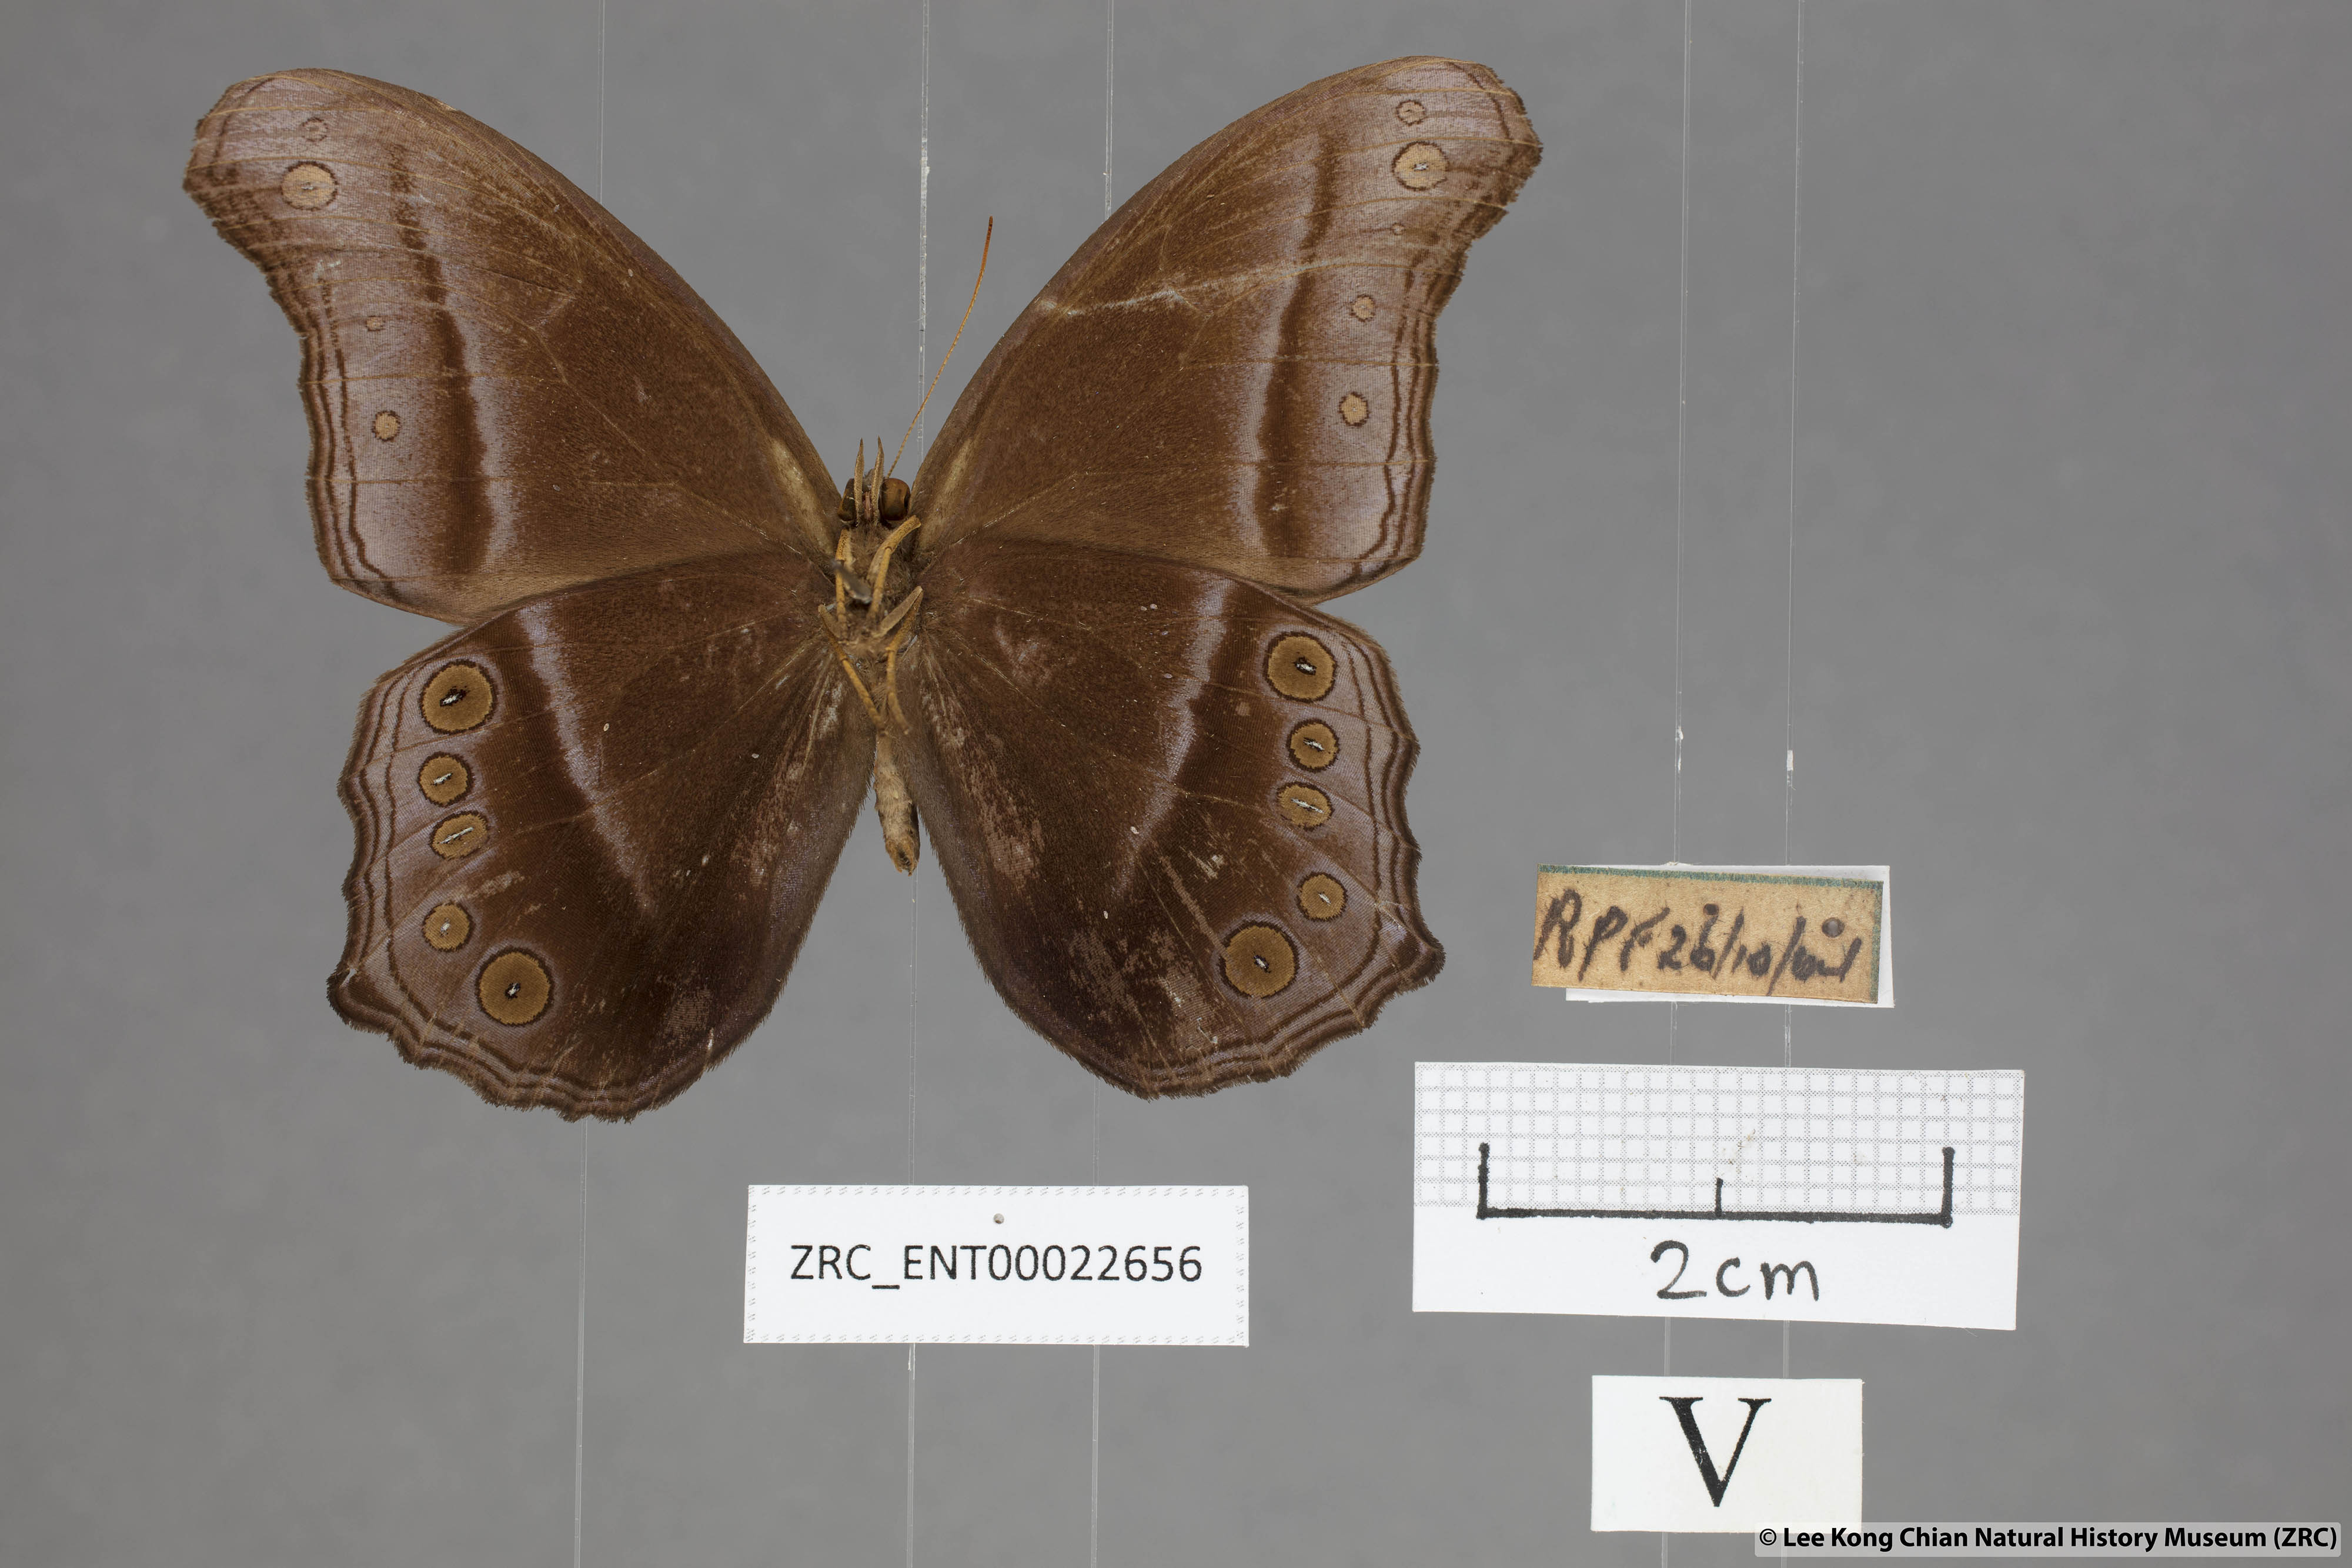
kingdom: Animalia
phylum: Arthropoda
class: Insecta
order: Lepidoptera
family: Nymphalidae
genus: Coelites
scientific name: Coelites epiminthia
